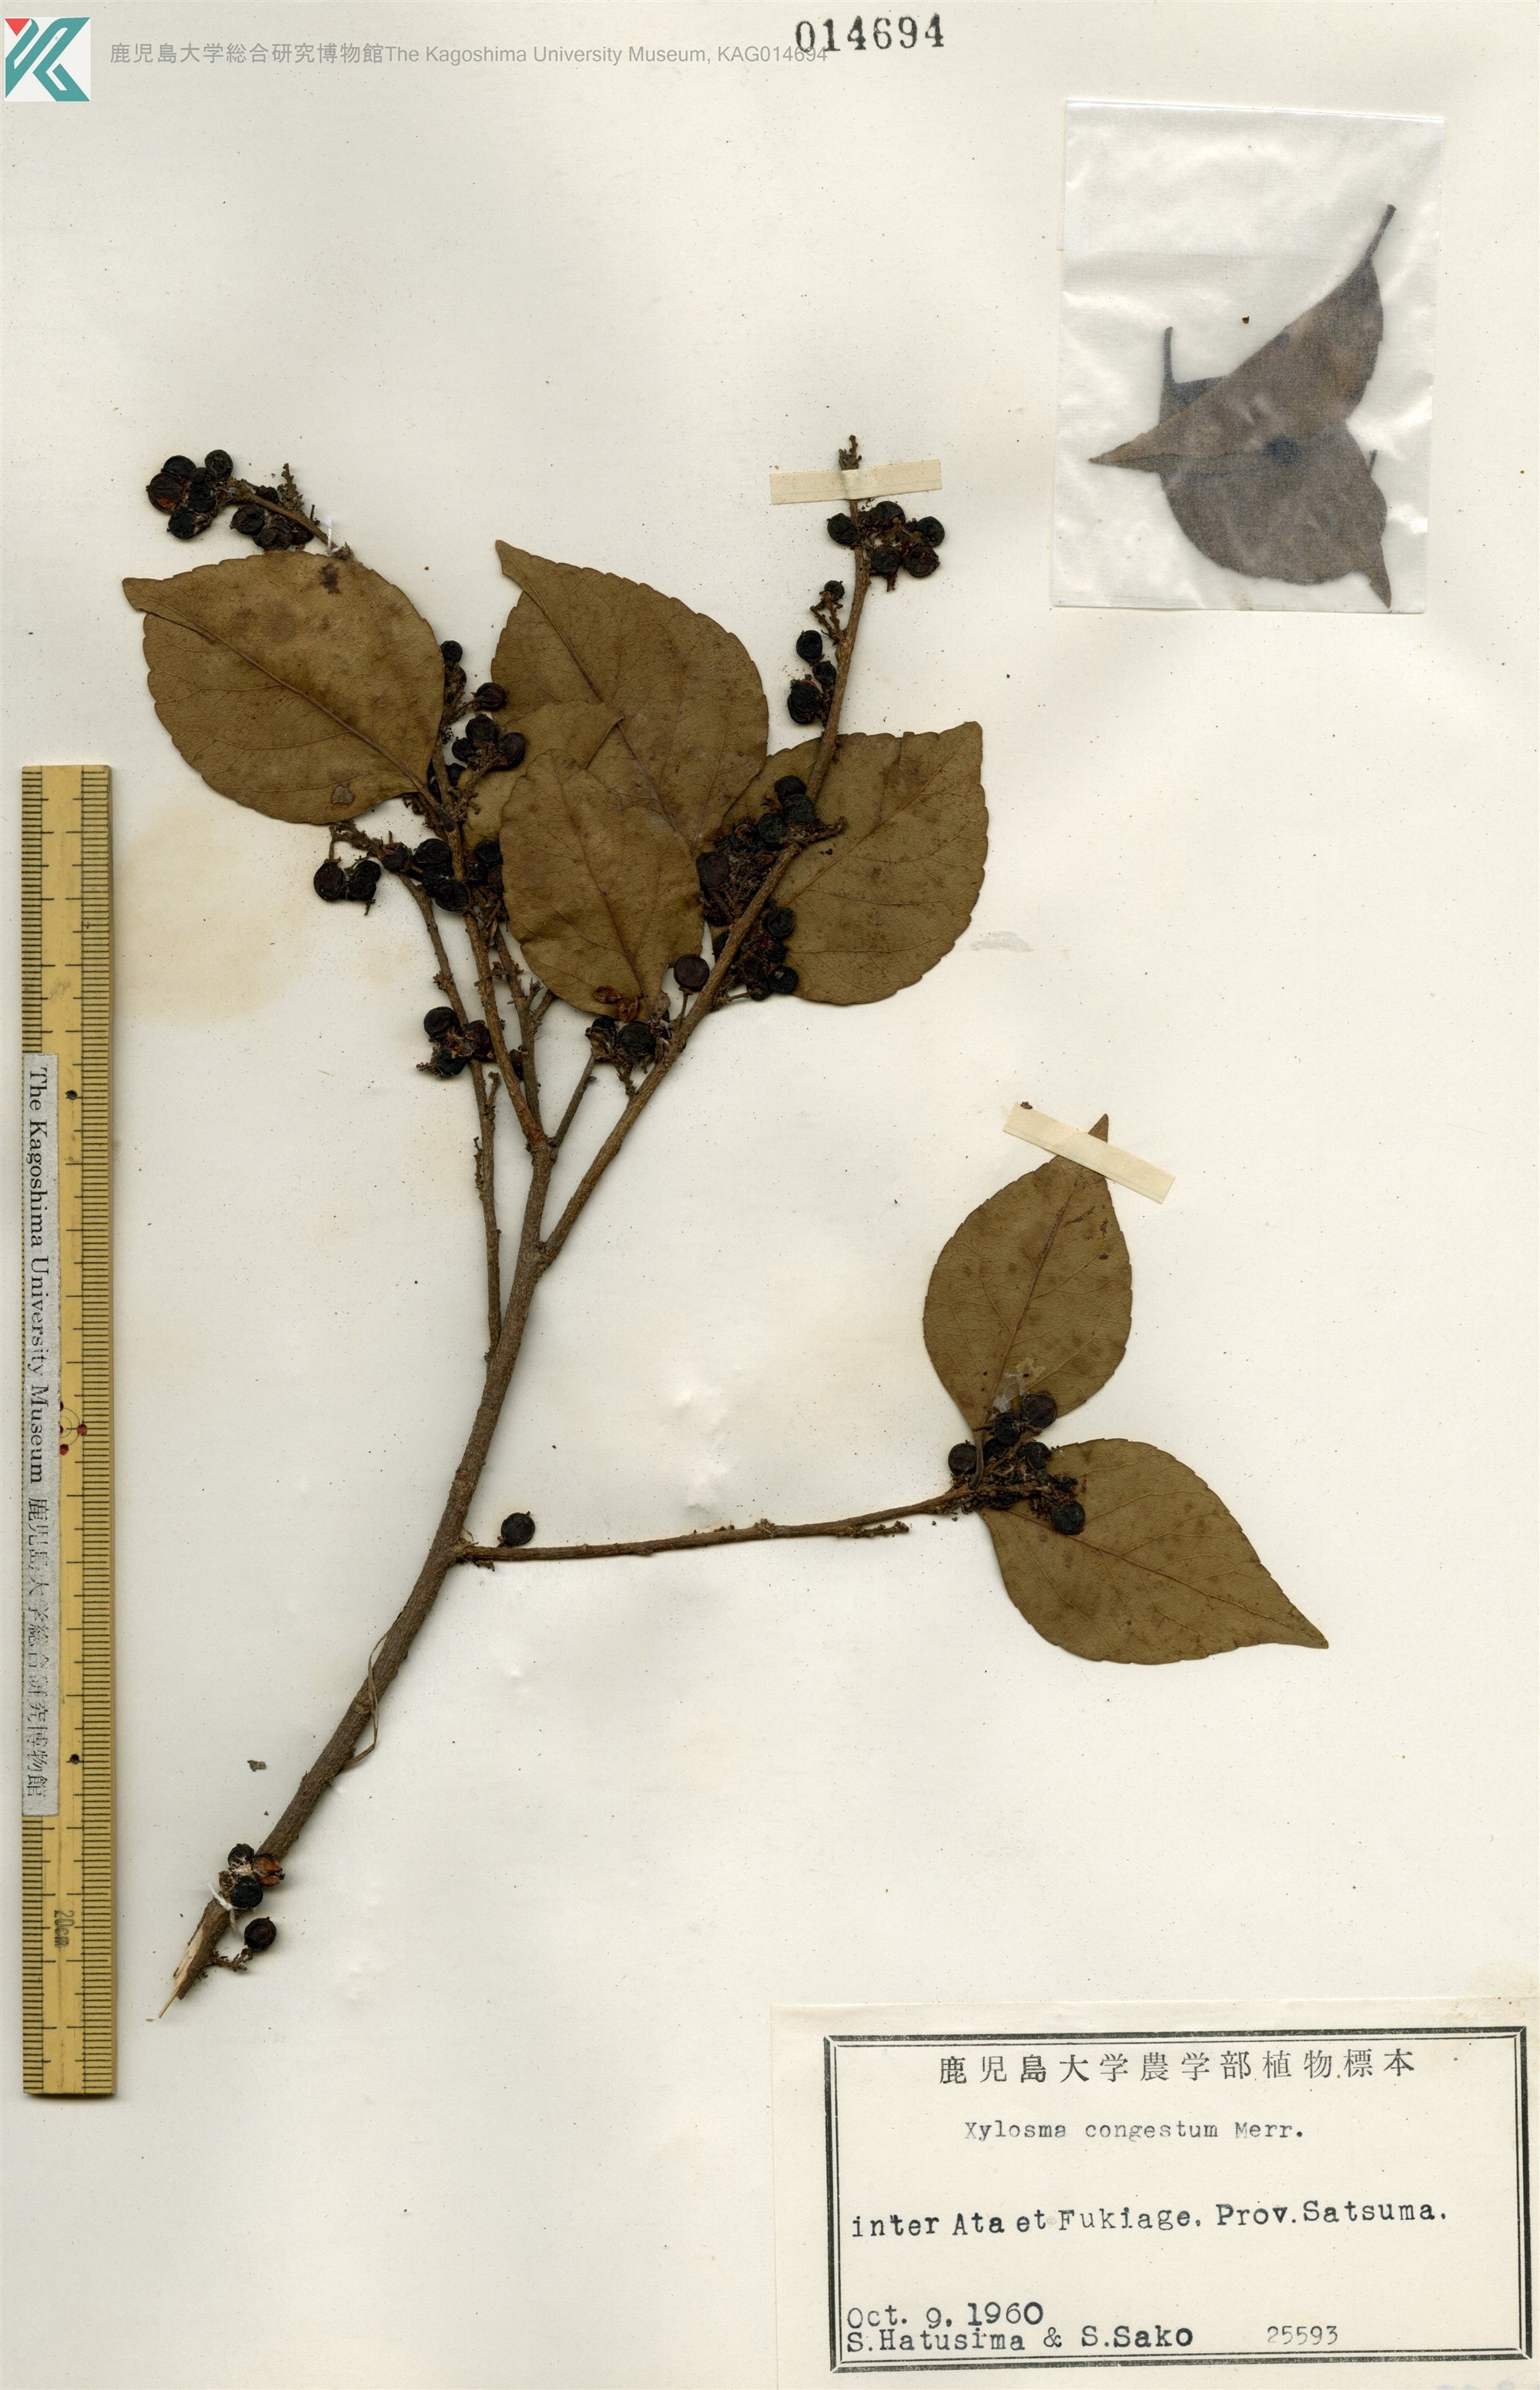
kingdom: Plantae
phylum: Tracheophyta
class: Magnoliopsida
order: Malpighiales
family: Salicaceae
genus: Xylosma
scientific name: Xylosma racemosum
